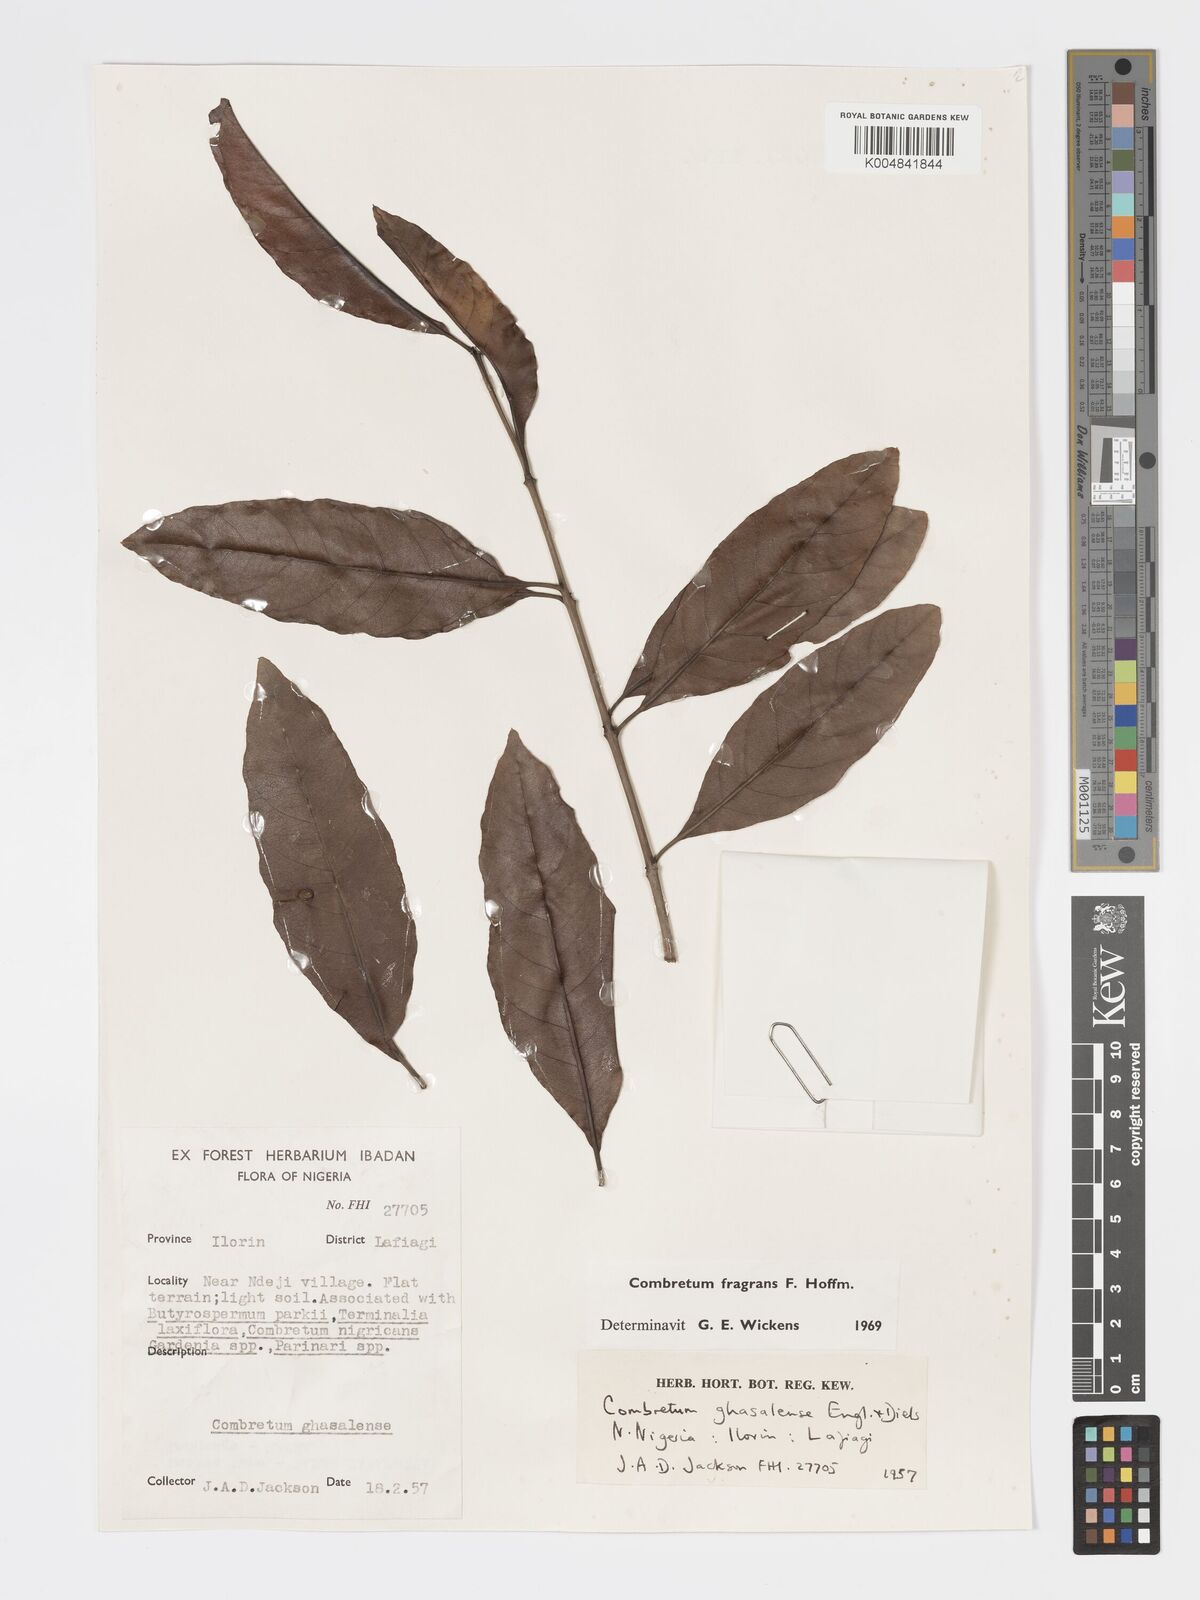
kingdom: Plantae
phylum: Tracheophyta
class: Magnoliopsida
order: Myrtales
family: Combretaceae
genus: Combretum
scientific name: Combretum adenogonium
